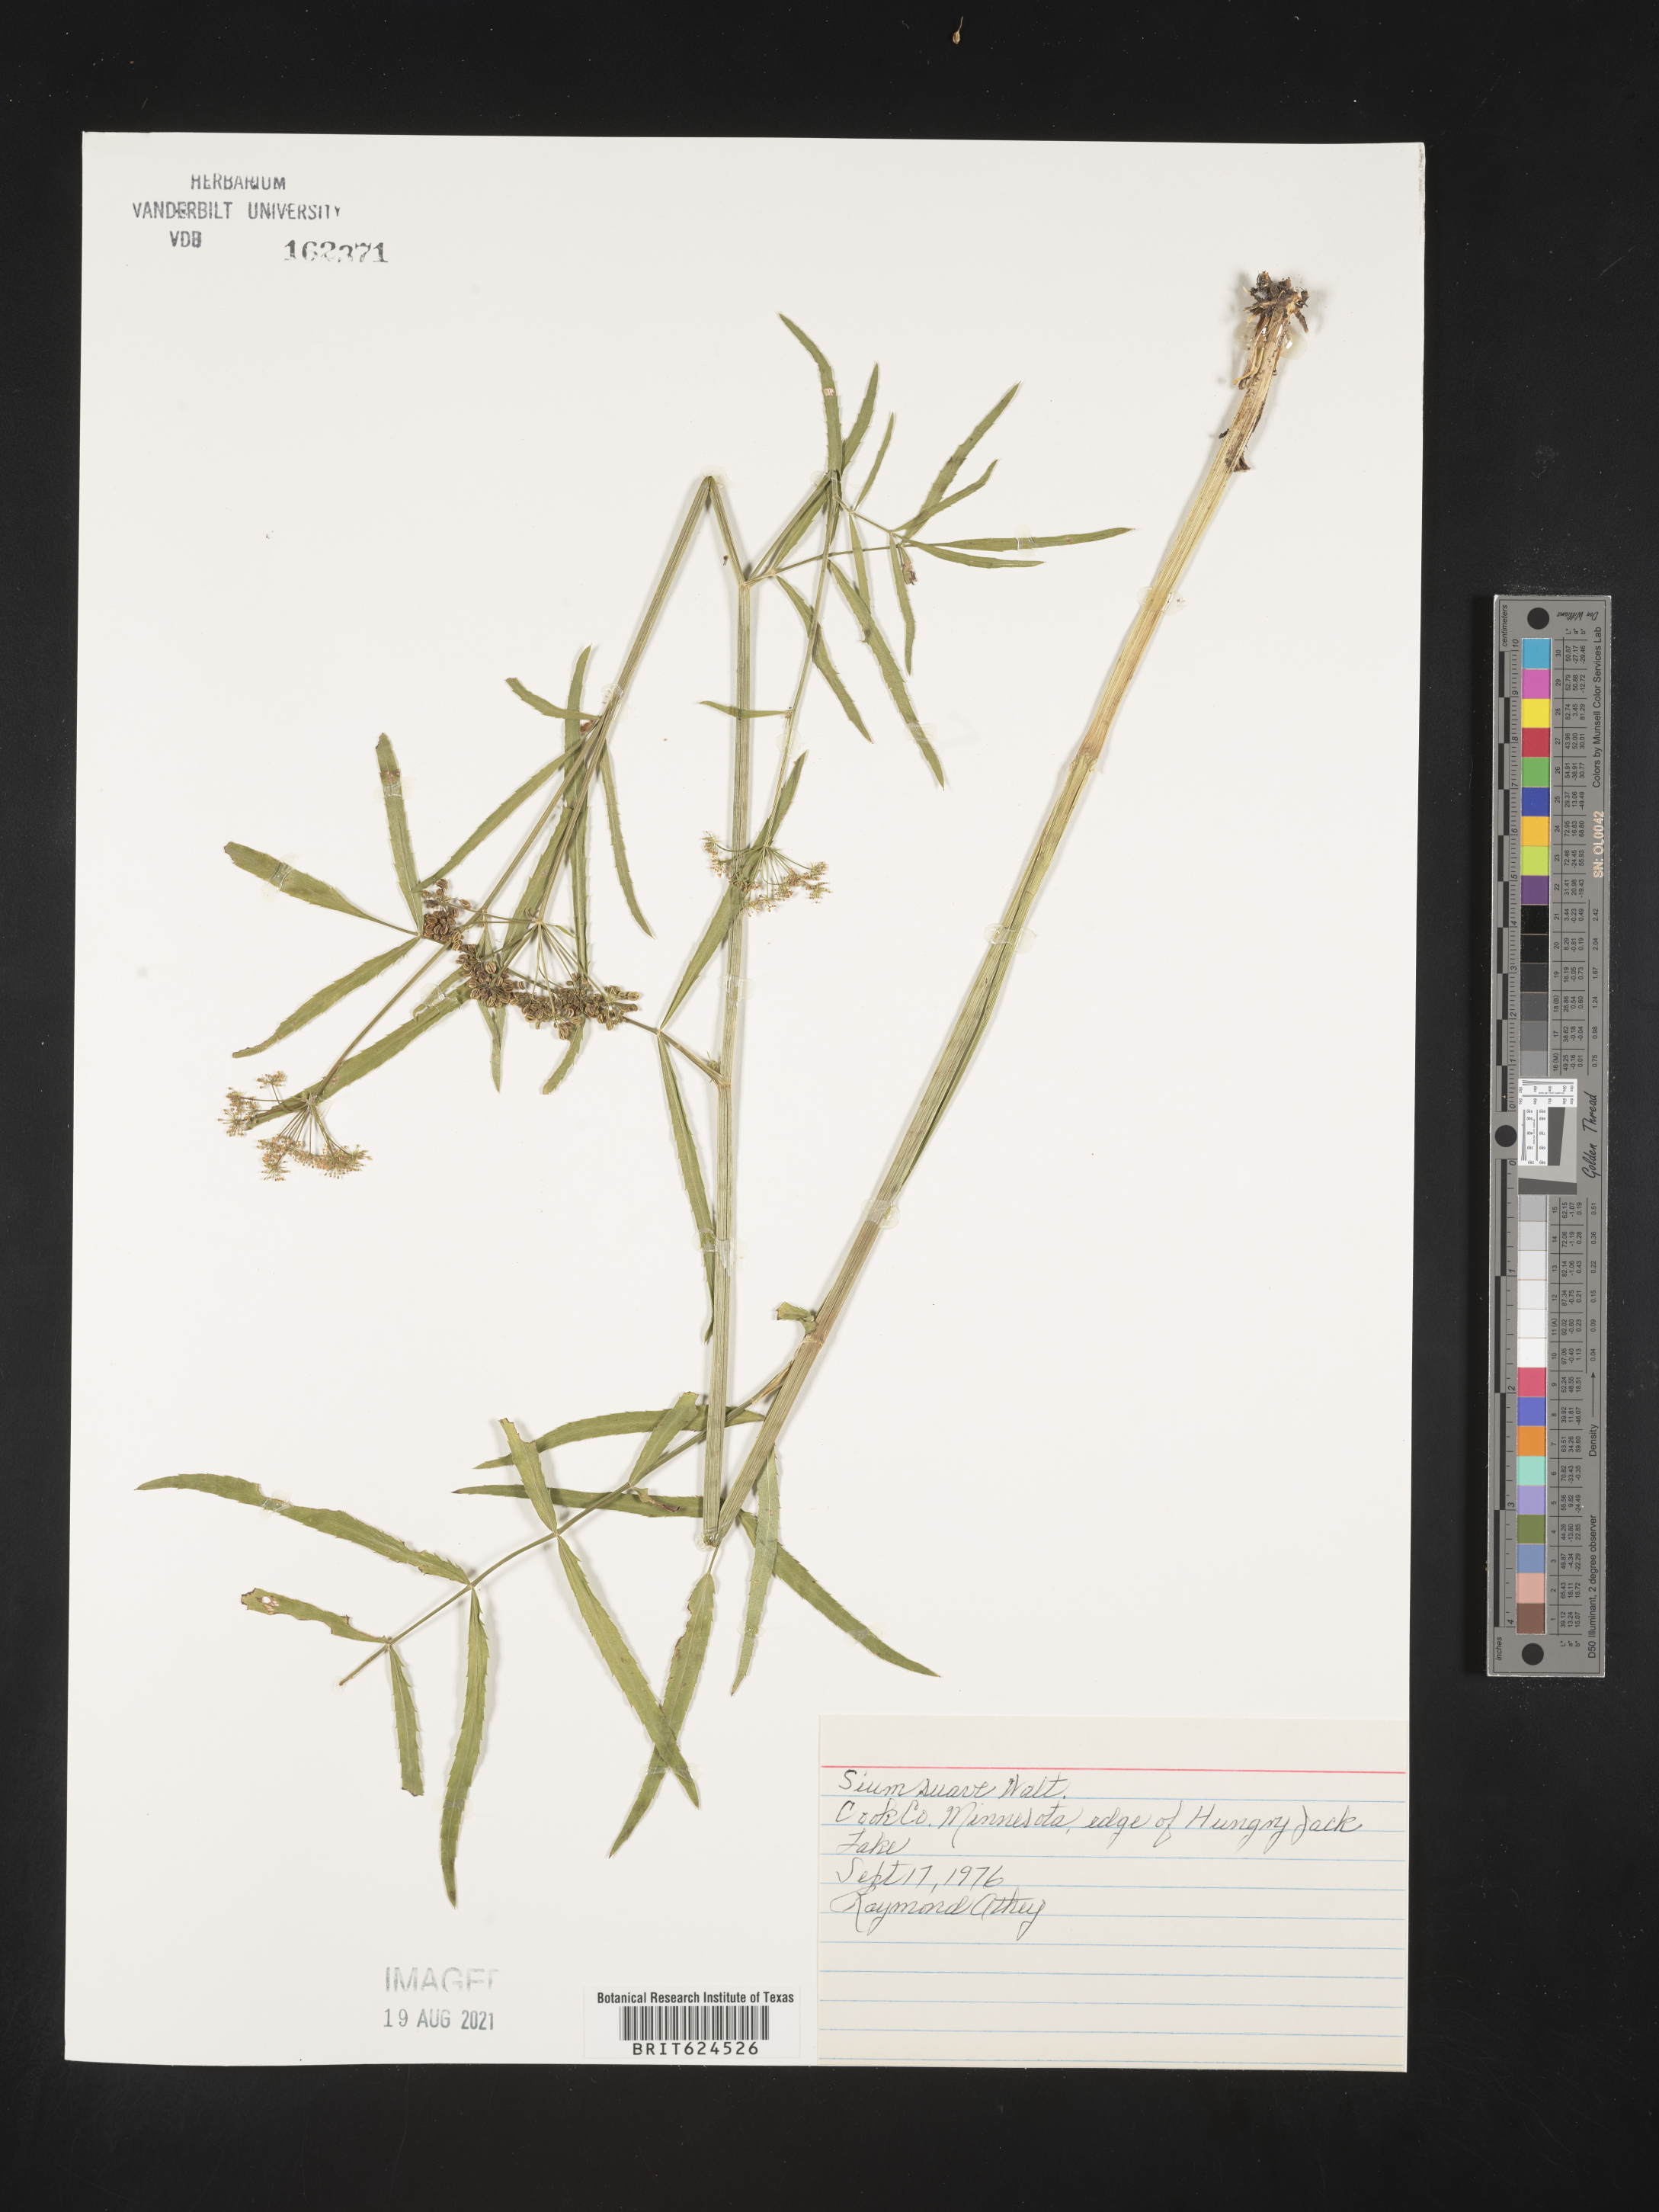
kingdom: Plantae
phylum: Tracheophyta
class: Magnoliopsida
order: Apiales
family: Apiaceae
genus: Sium
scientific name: Sium suave
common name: Hemlock water-parsnip
